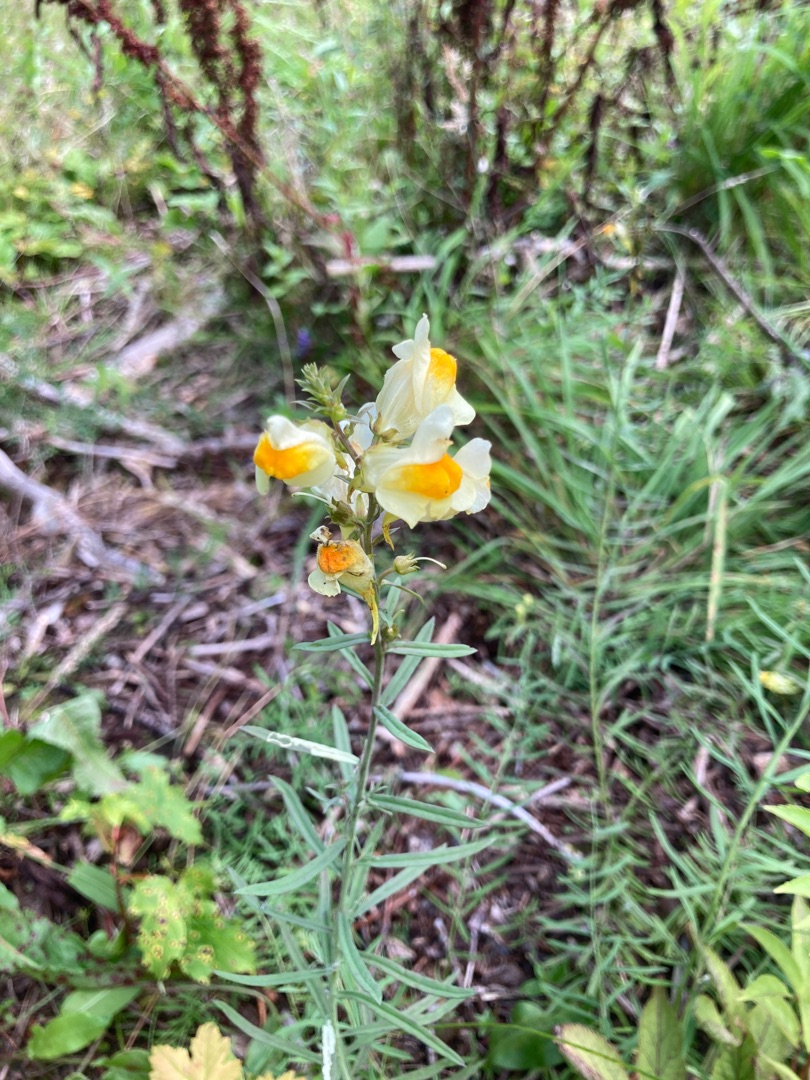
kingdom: Plantae
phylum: Tracheophyta
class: Magnoliopsida
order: Lamiales
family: Plantaginaceae
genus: Linaria
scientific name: Linaria vulgaris
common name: Almindelig torskemund
